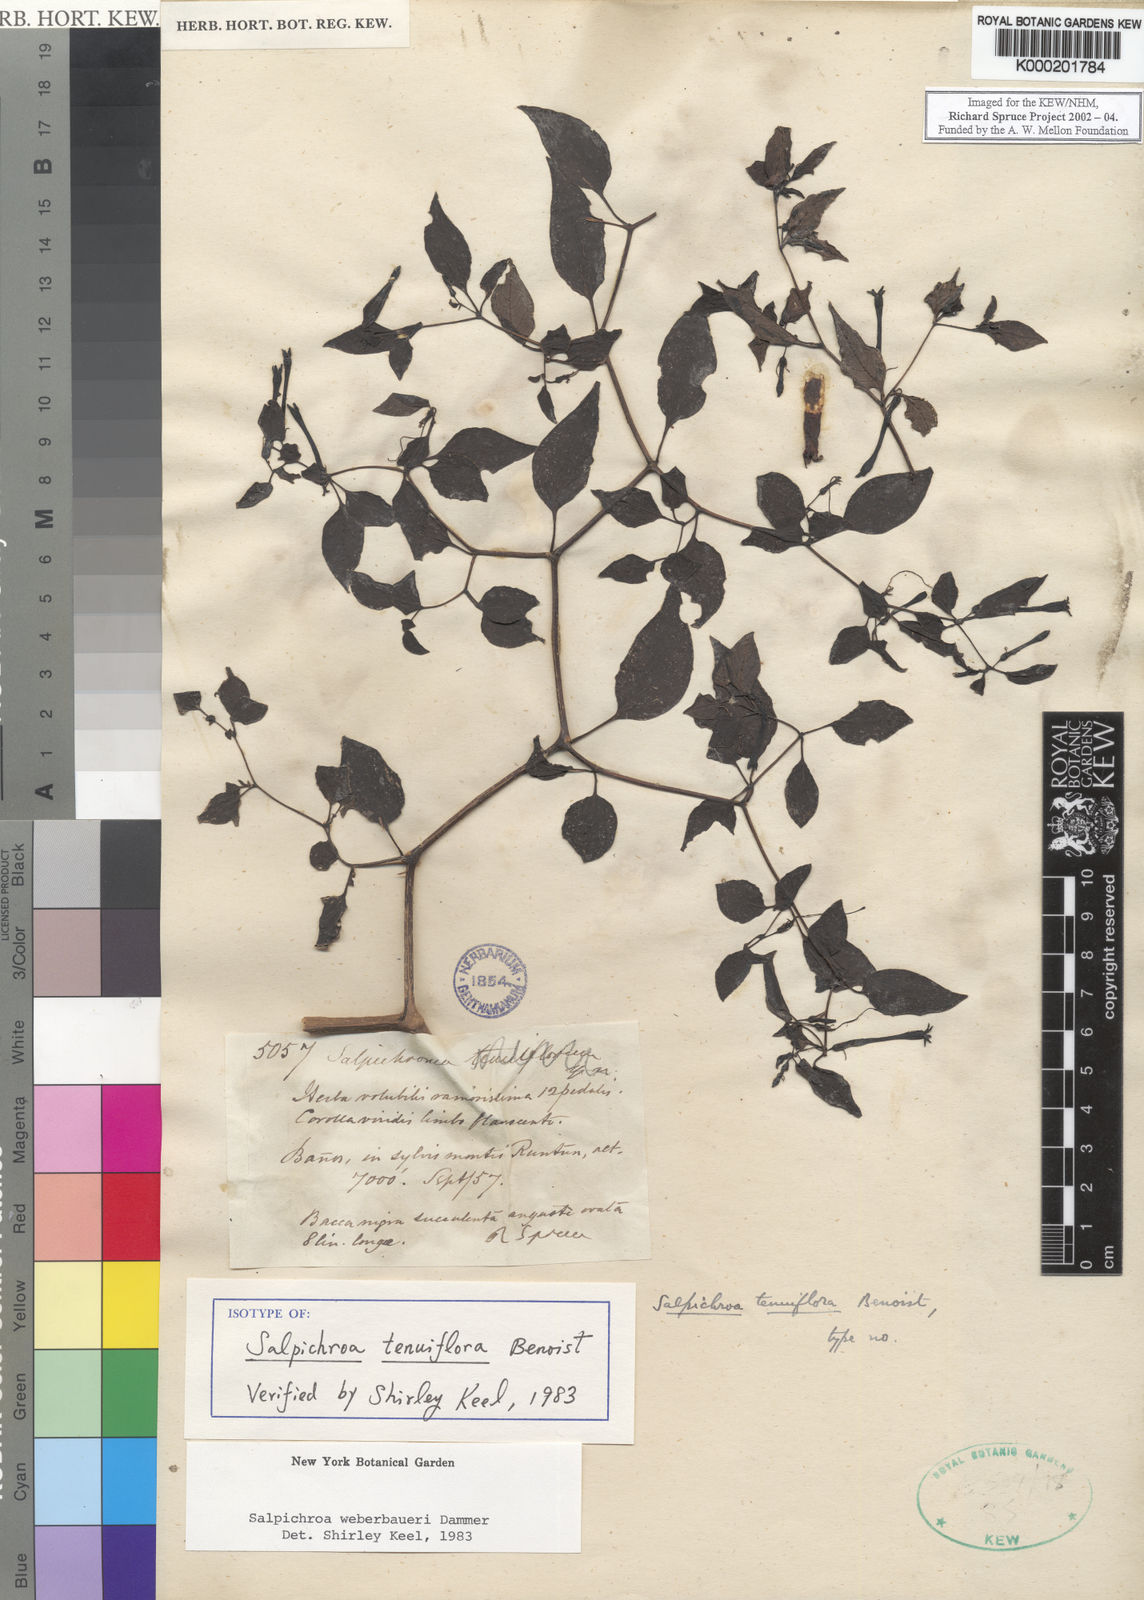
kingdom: Plantae
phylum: Tracheophyta
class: Magnoliopsida
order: Solanales
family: Solanaceae
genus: Salpichroa
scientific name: Salpichroa weberbaueri
